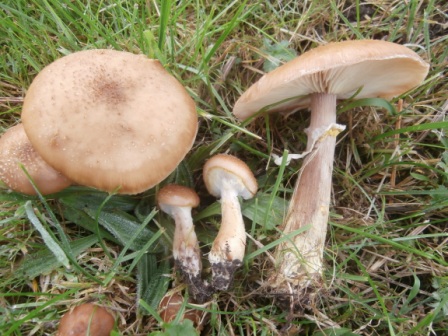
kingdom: Fungi
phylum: Basidiomycota
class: Agaricomycetes
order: Agaricales
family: Physalacriaceae
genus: Armillaria
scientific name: Armillaria lutea
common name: køllestokket honningsvamp
